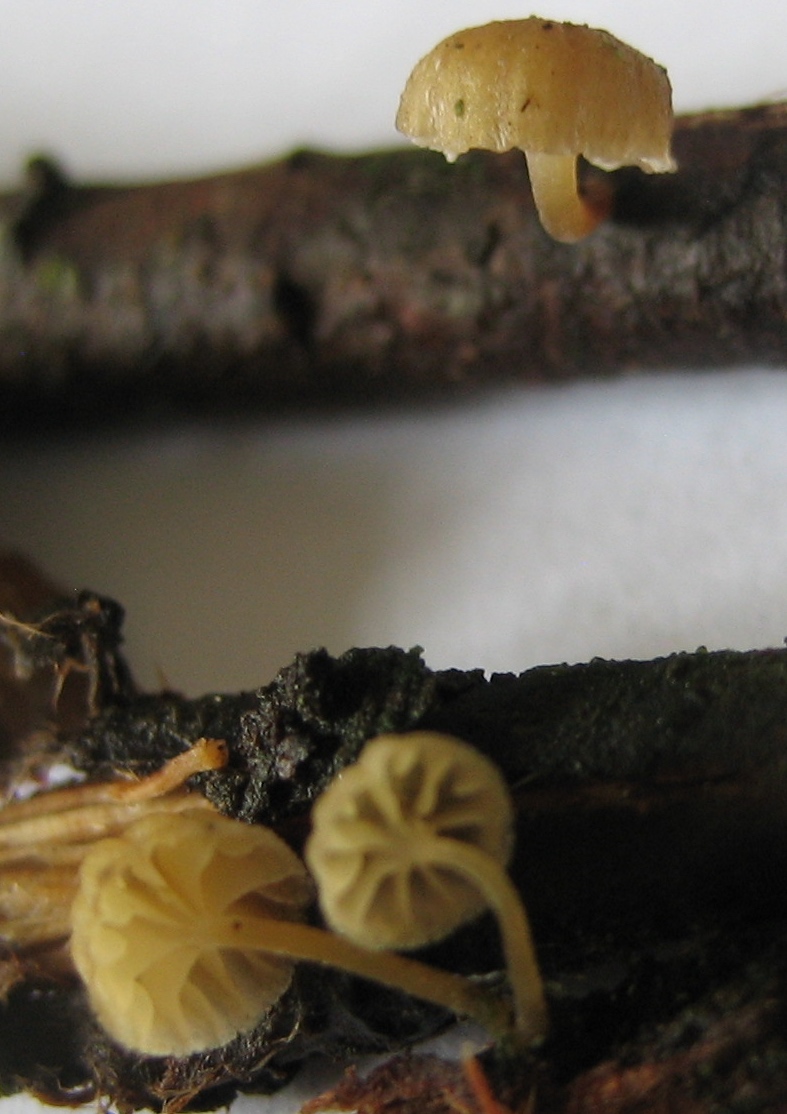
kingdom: Fungi
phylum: Basidiomycota
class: Agaricomycetes
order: Agaricales
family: Mycenaceae
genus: Mycena
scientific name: Mycena juniperina
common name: ene-Huesvamp
